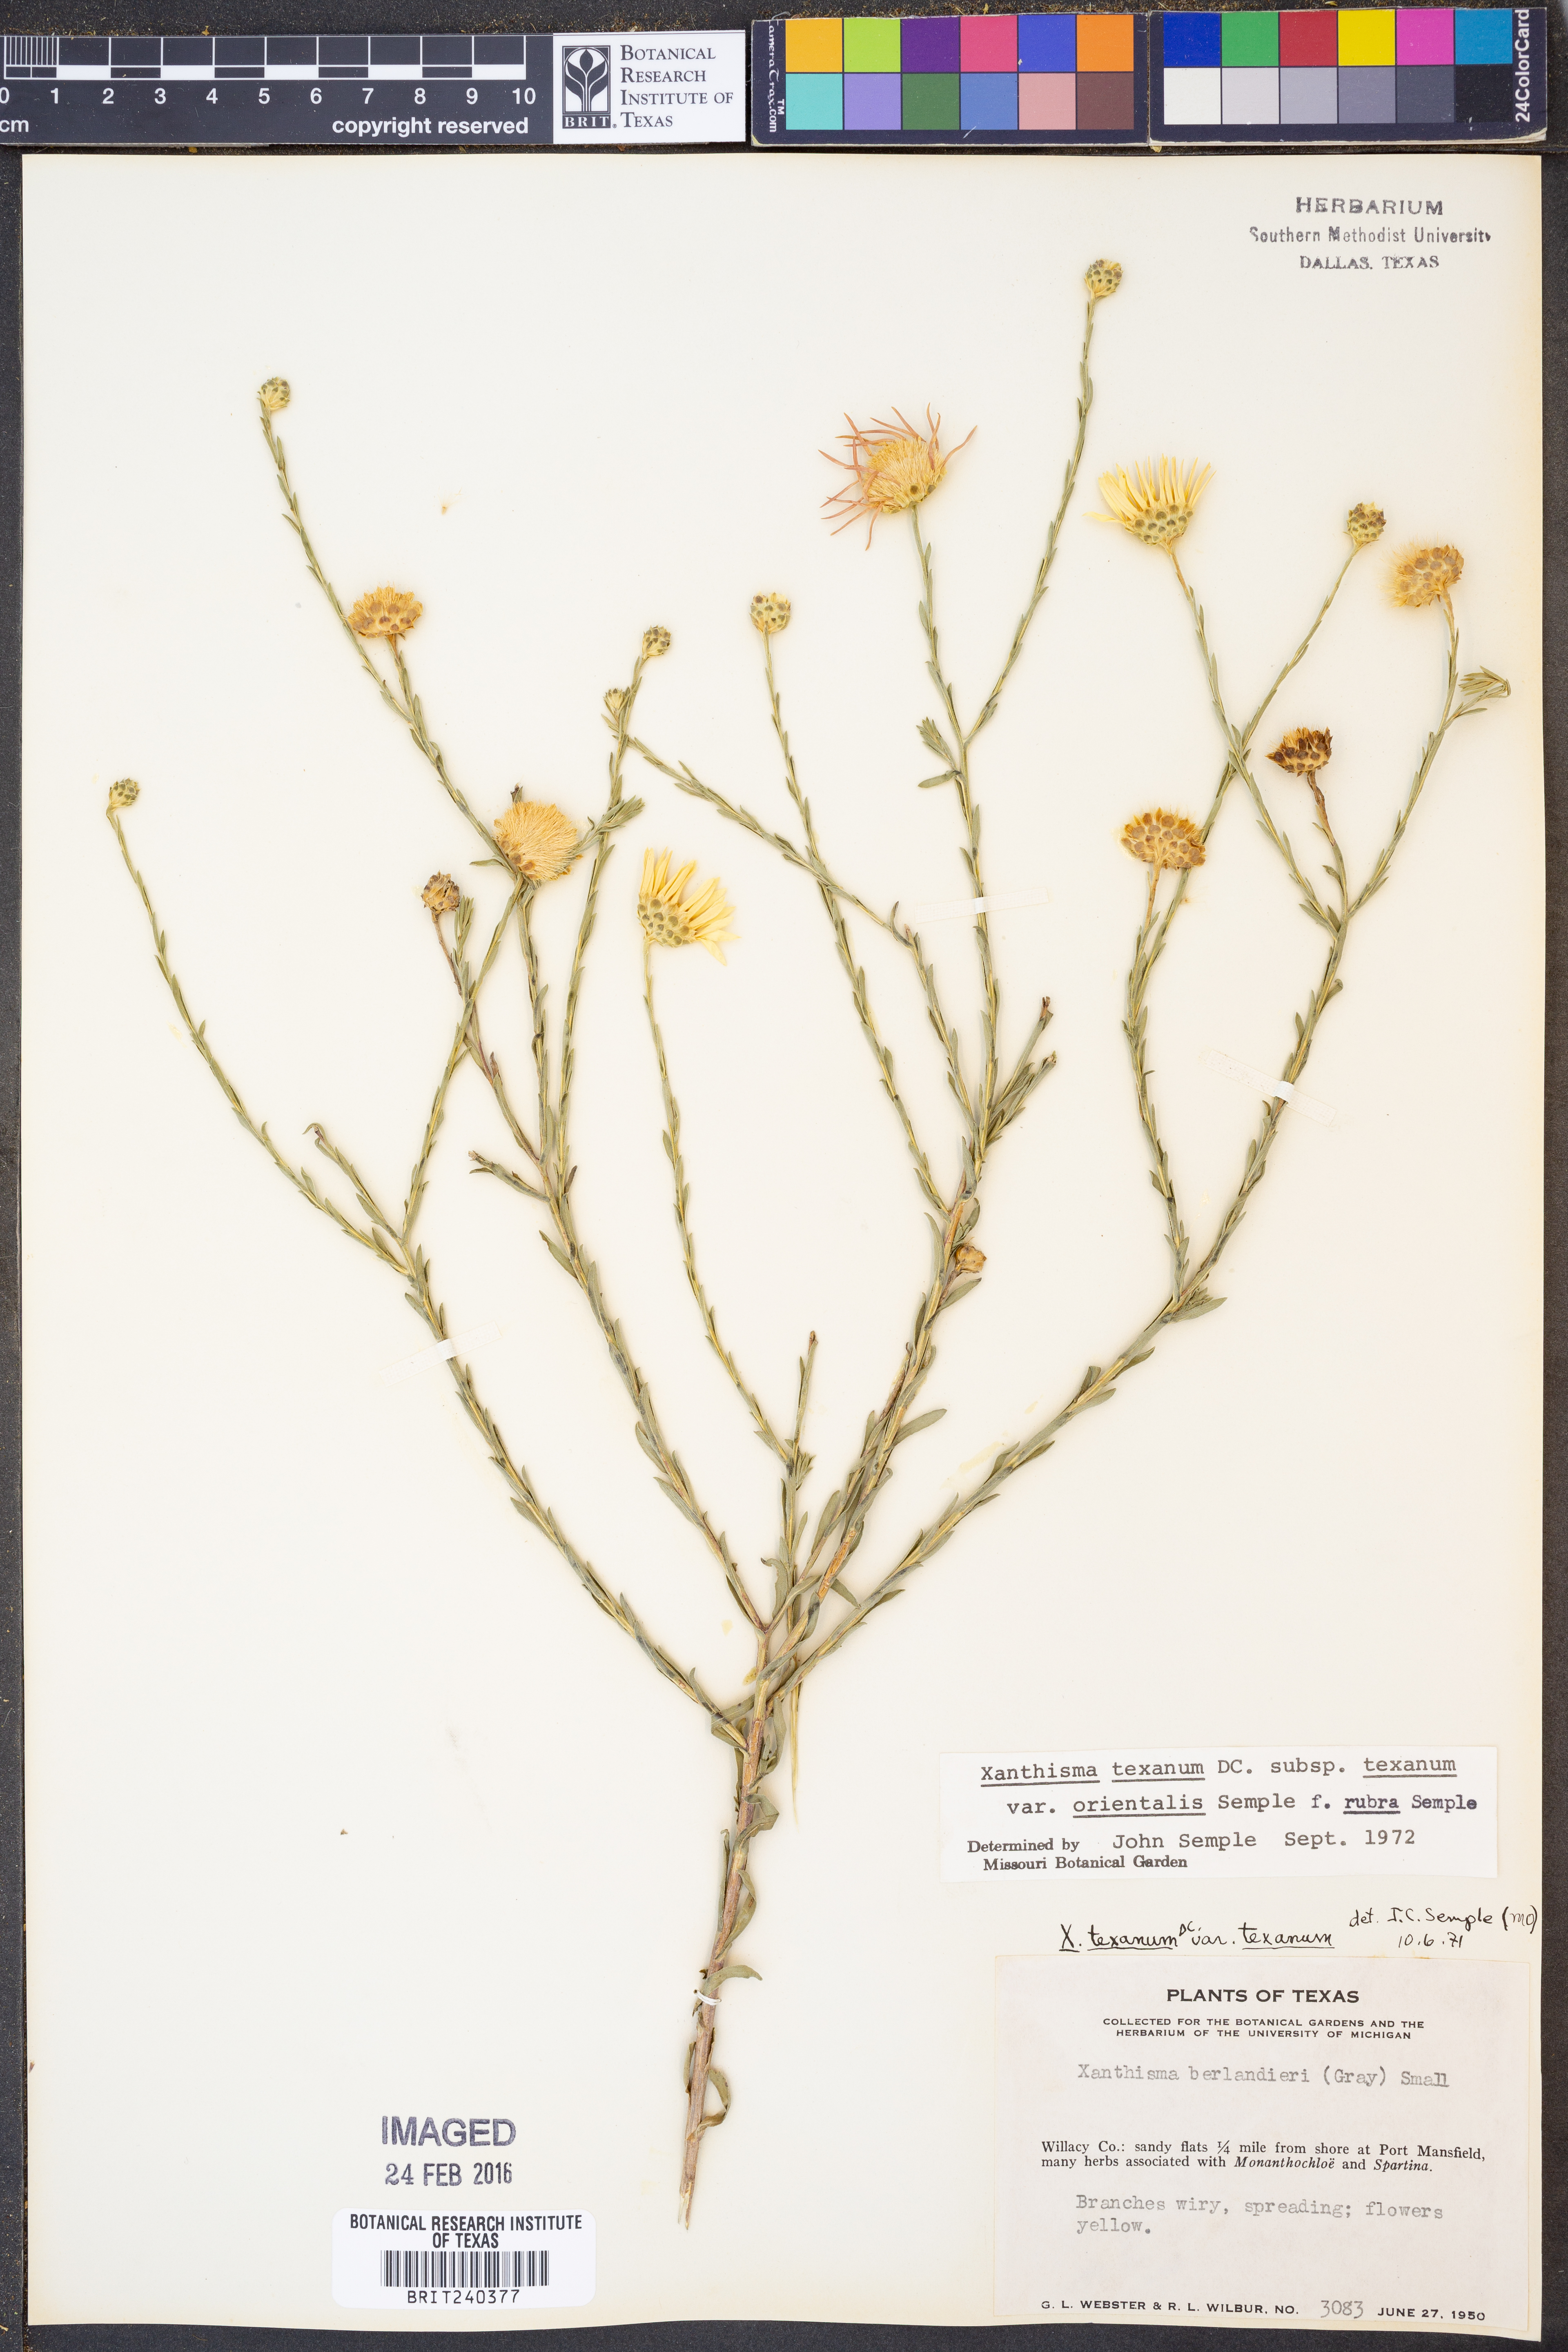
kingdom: Plantae
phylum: Tracheophyta
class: Magnoliopsida
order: Asterales
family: Asteraceae
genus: Xanthisma
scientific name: Xanthisma texanum
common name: Texas sleepy daisy
